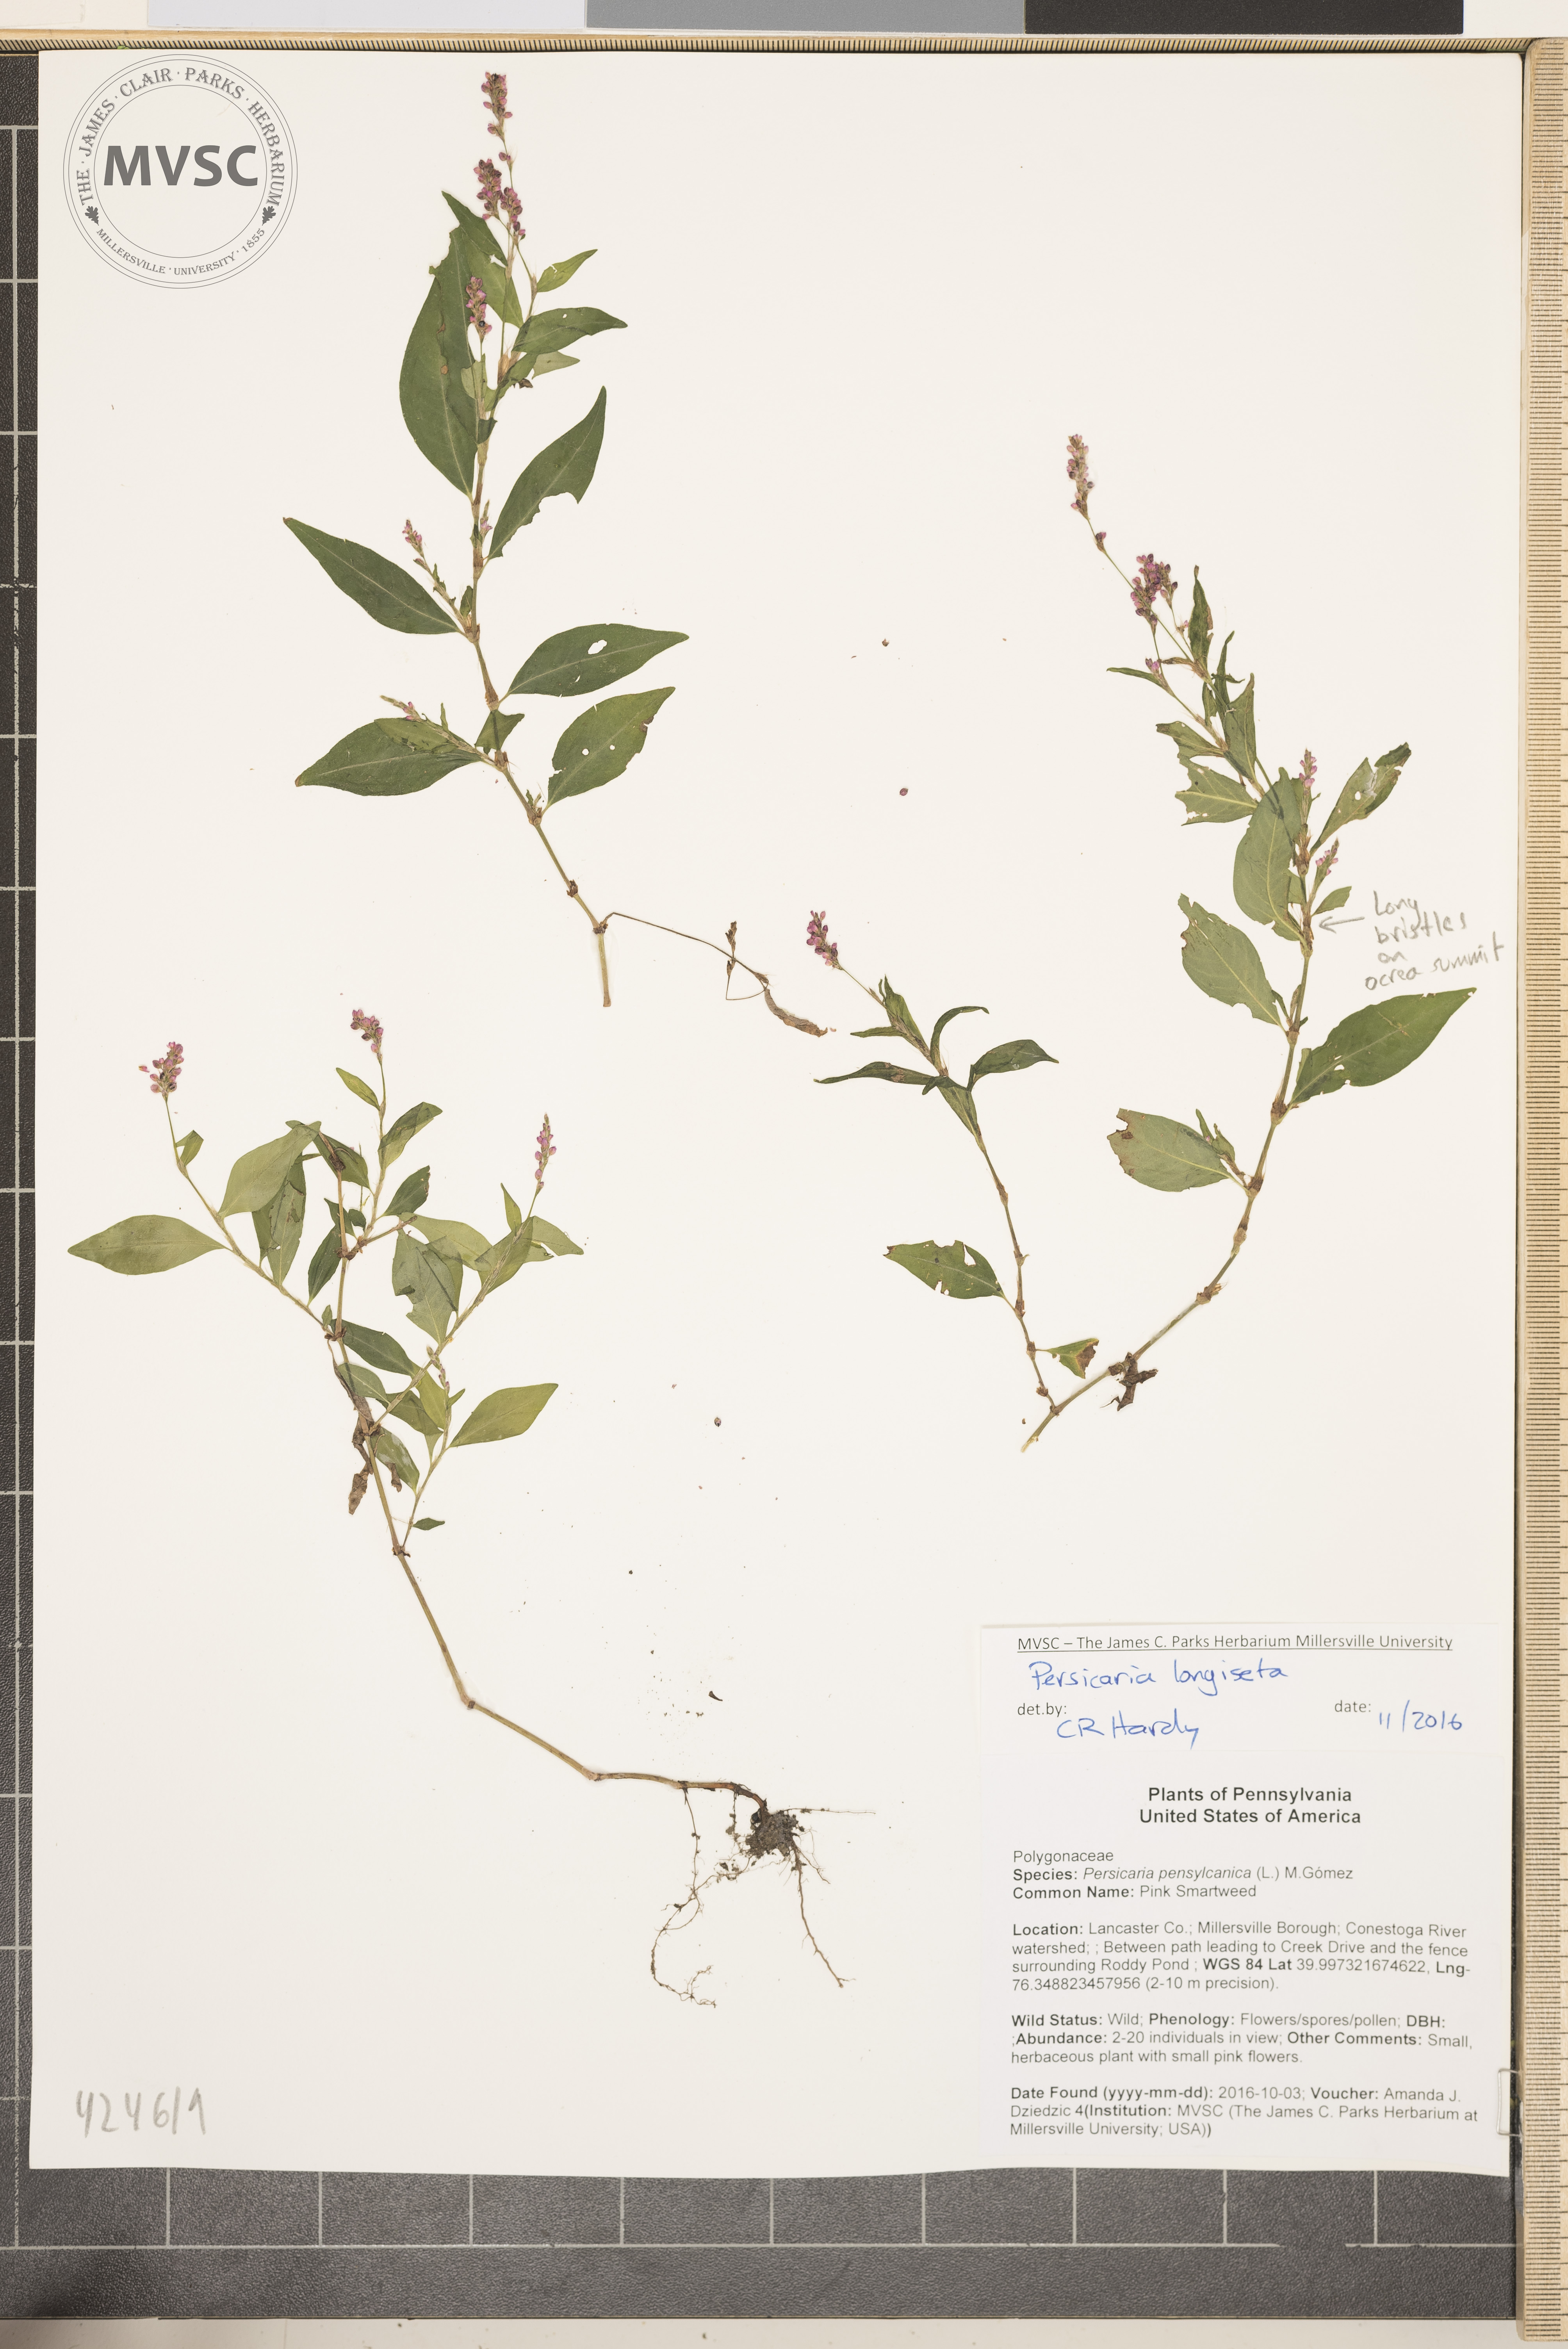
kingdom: Plantae
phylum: Tracheophyta
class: Magnoliopsida
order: Caryophyllales
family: Polygonaceae
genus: Persicaria
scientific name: Persicaria longiseta
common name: Low Smartweed
